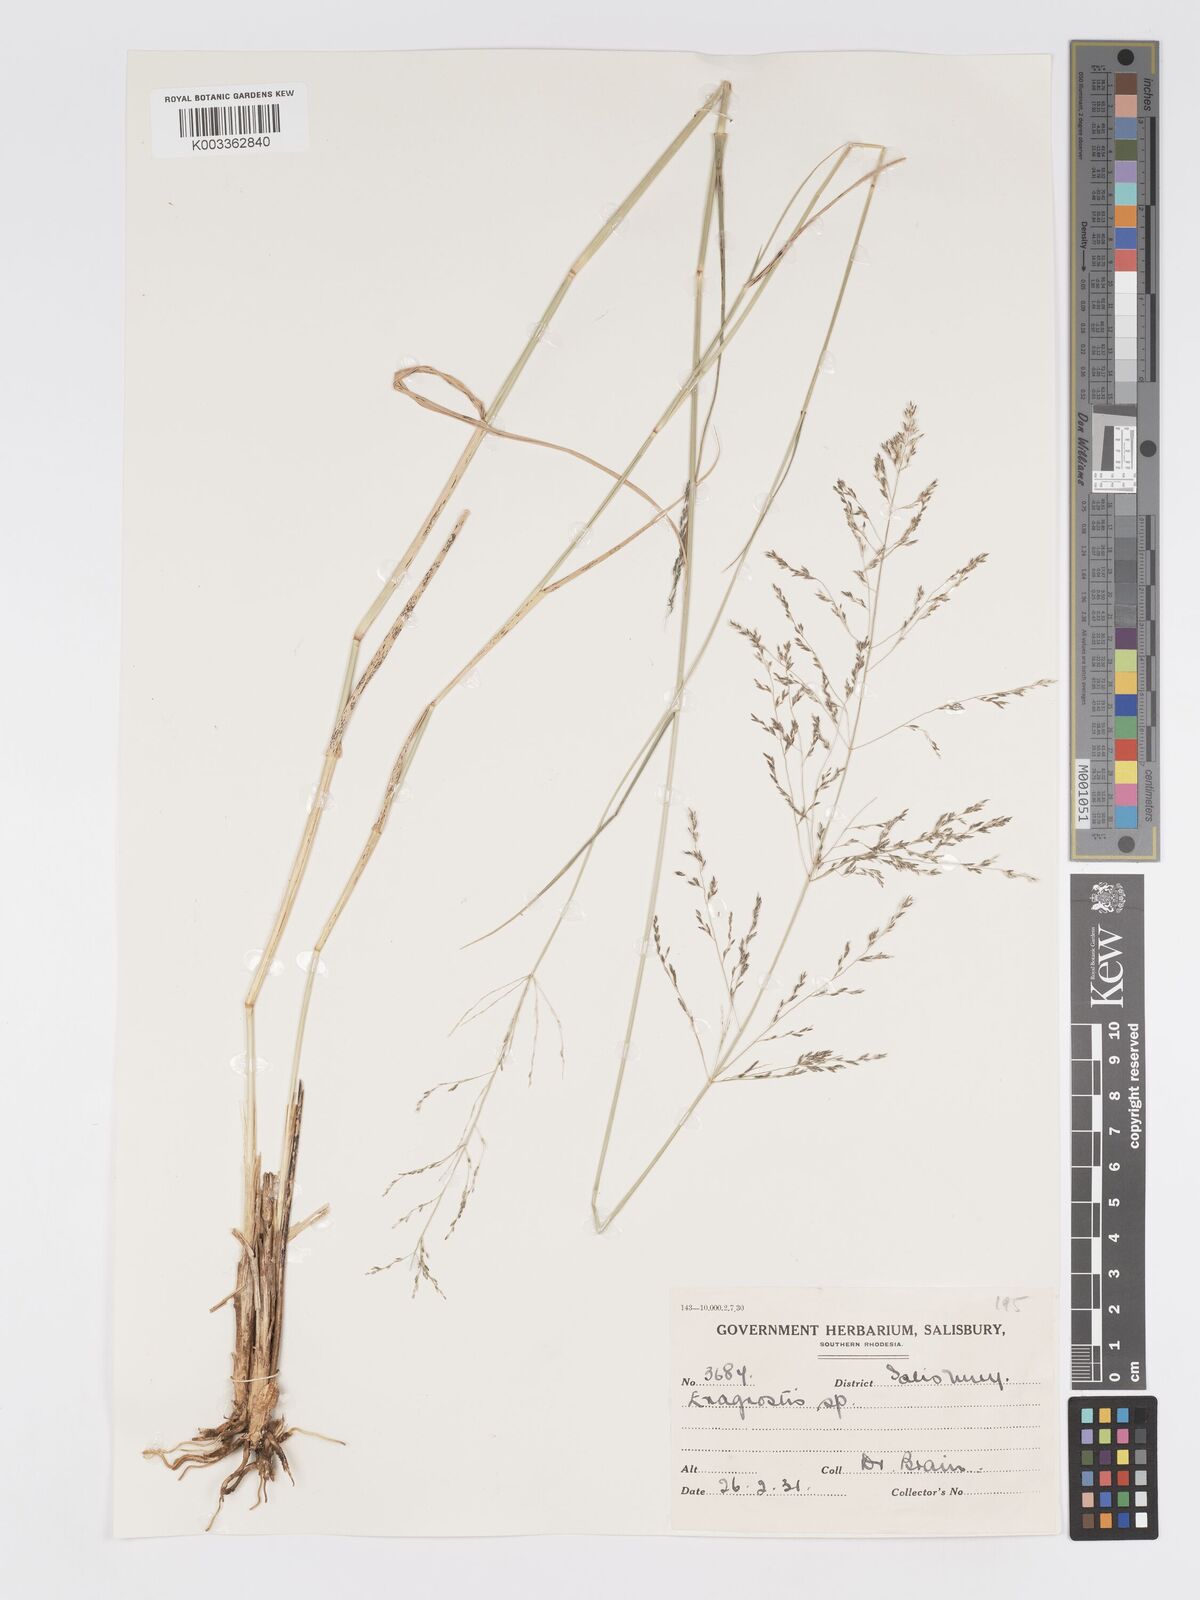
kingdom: Plantae
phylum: Tracheophyta
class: Liliopsida
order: Poales
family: Poaceae
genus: Eragrostis
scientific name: Eragrostis cylindriflora
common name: Cylinderflower lovegrass
